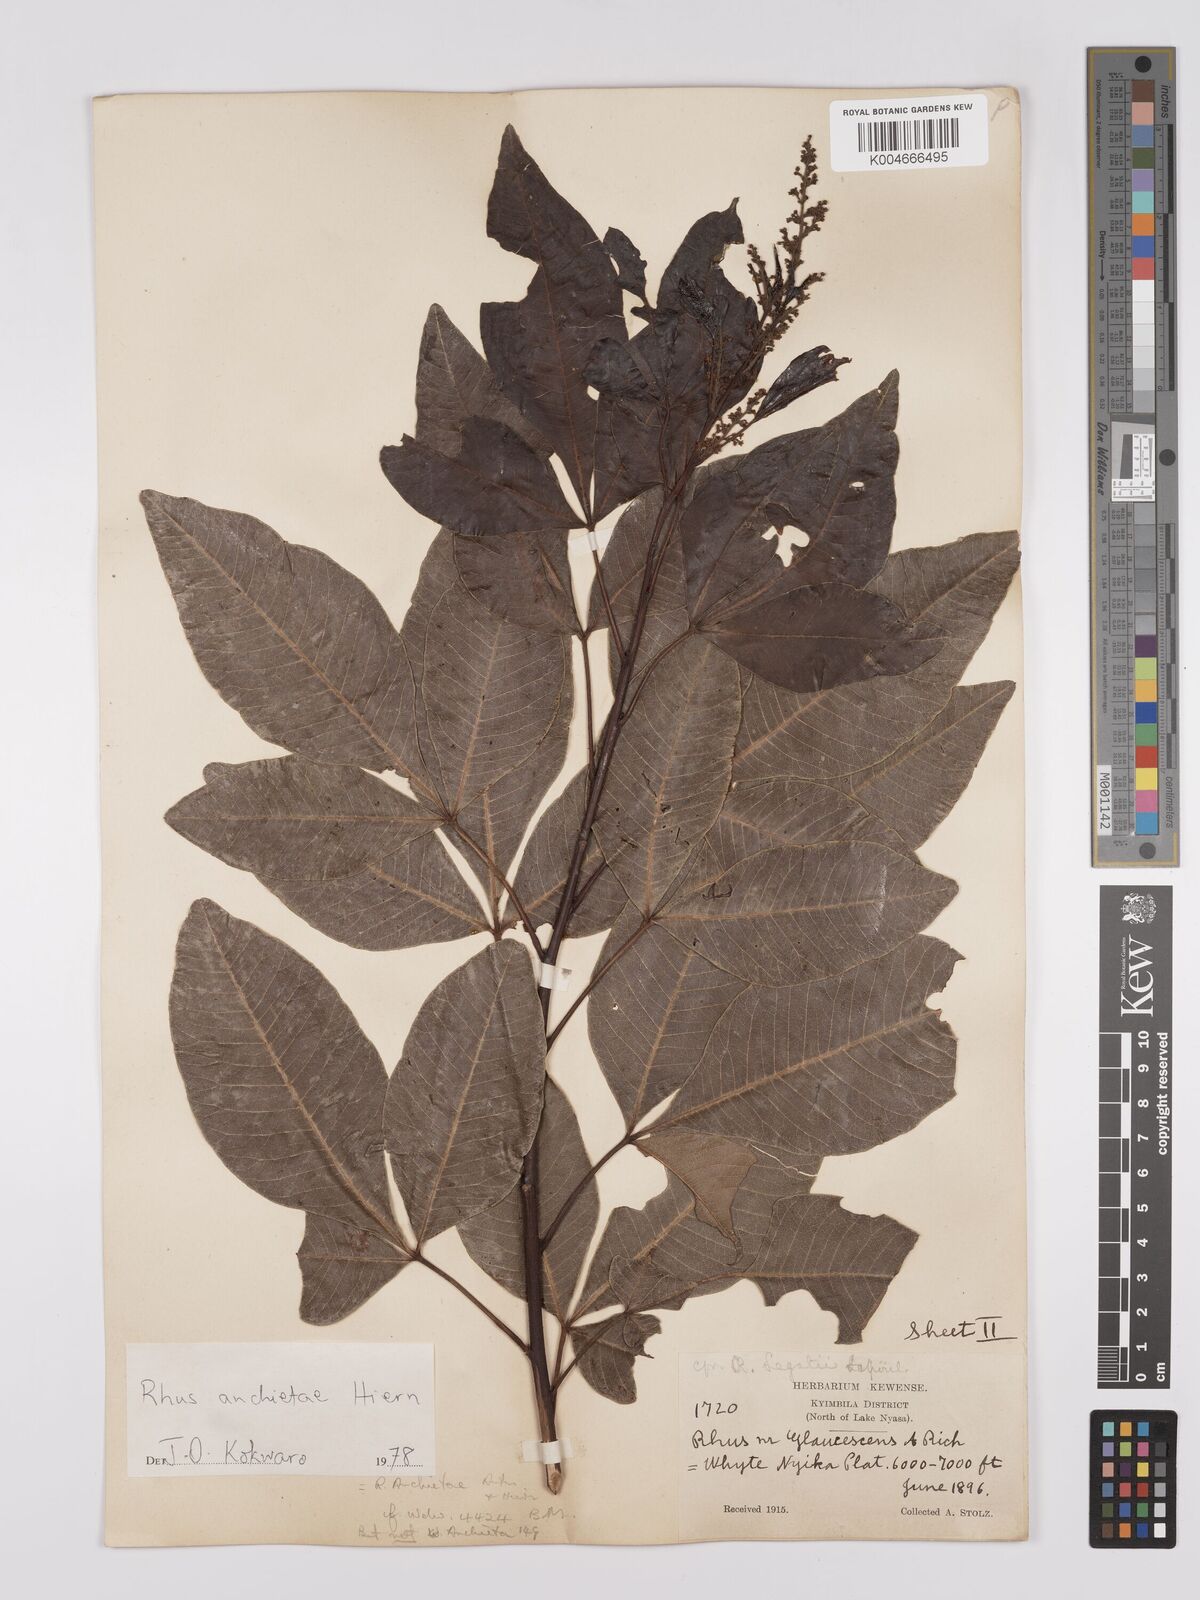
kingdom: Plantae
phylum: Tracheophyta
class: Magnoliopsida
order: Sapindales
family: Anacardiaceae
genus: Searsia
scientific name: Searsia anchietae
